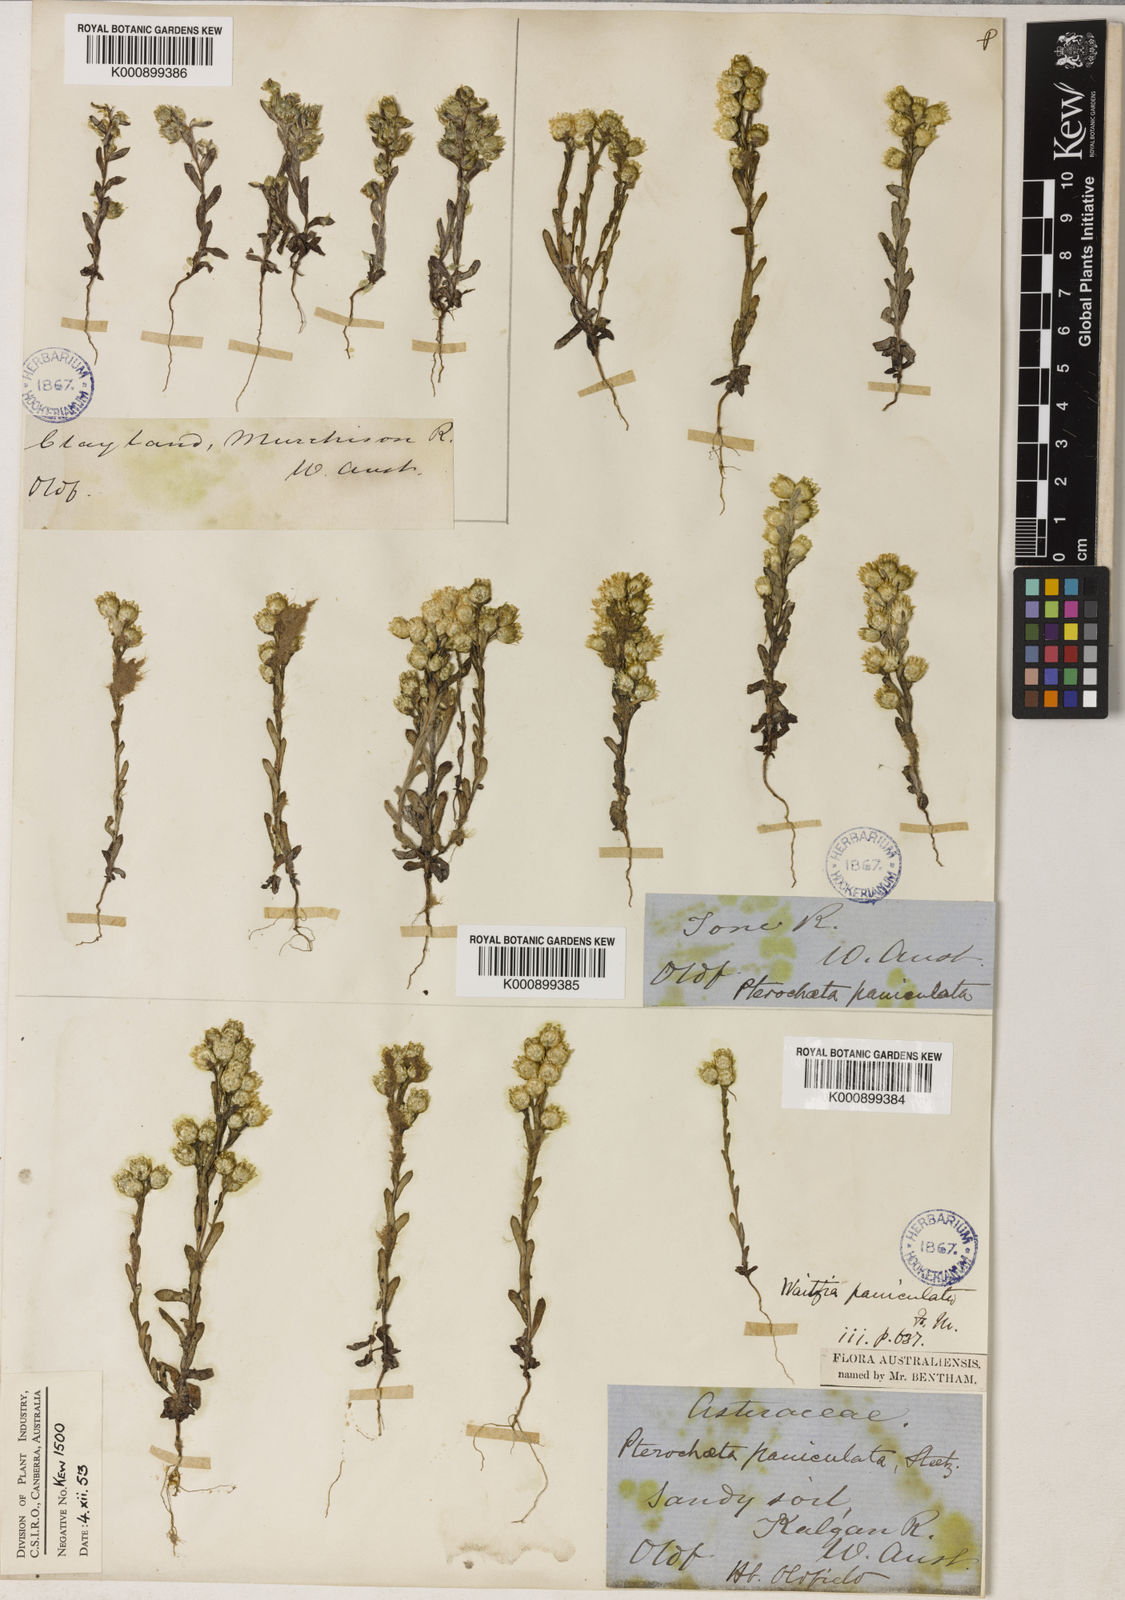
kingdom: Plantae
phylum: Tracheophyta
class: Magnoliopsida
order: Asterales
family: Asteraceae
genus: Pterochaeta
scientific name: Pterochaeta paniculata
